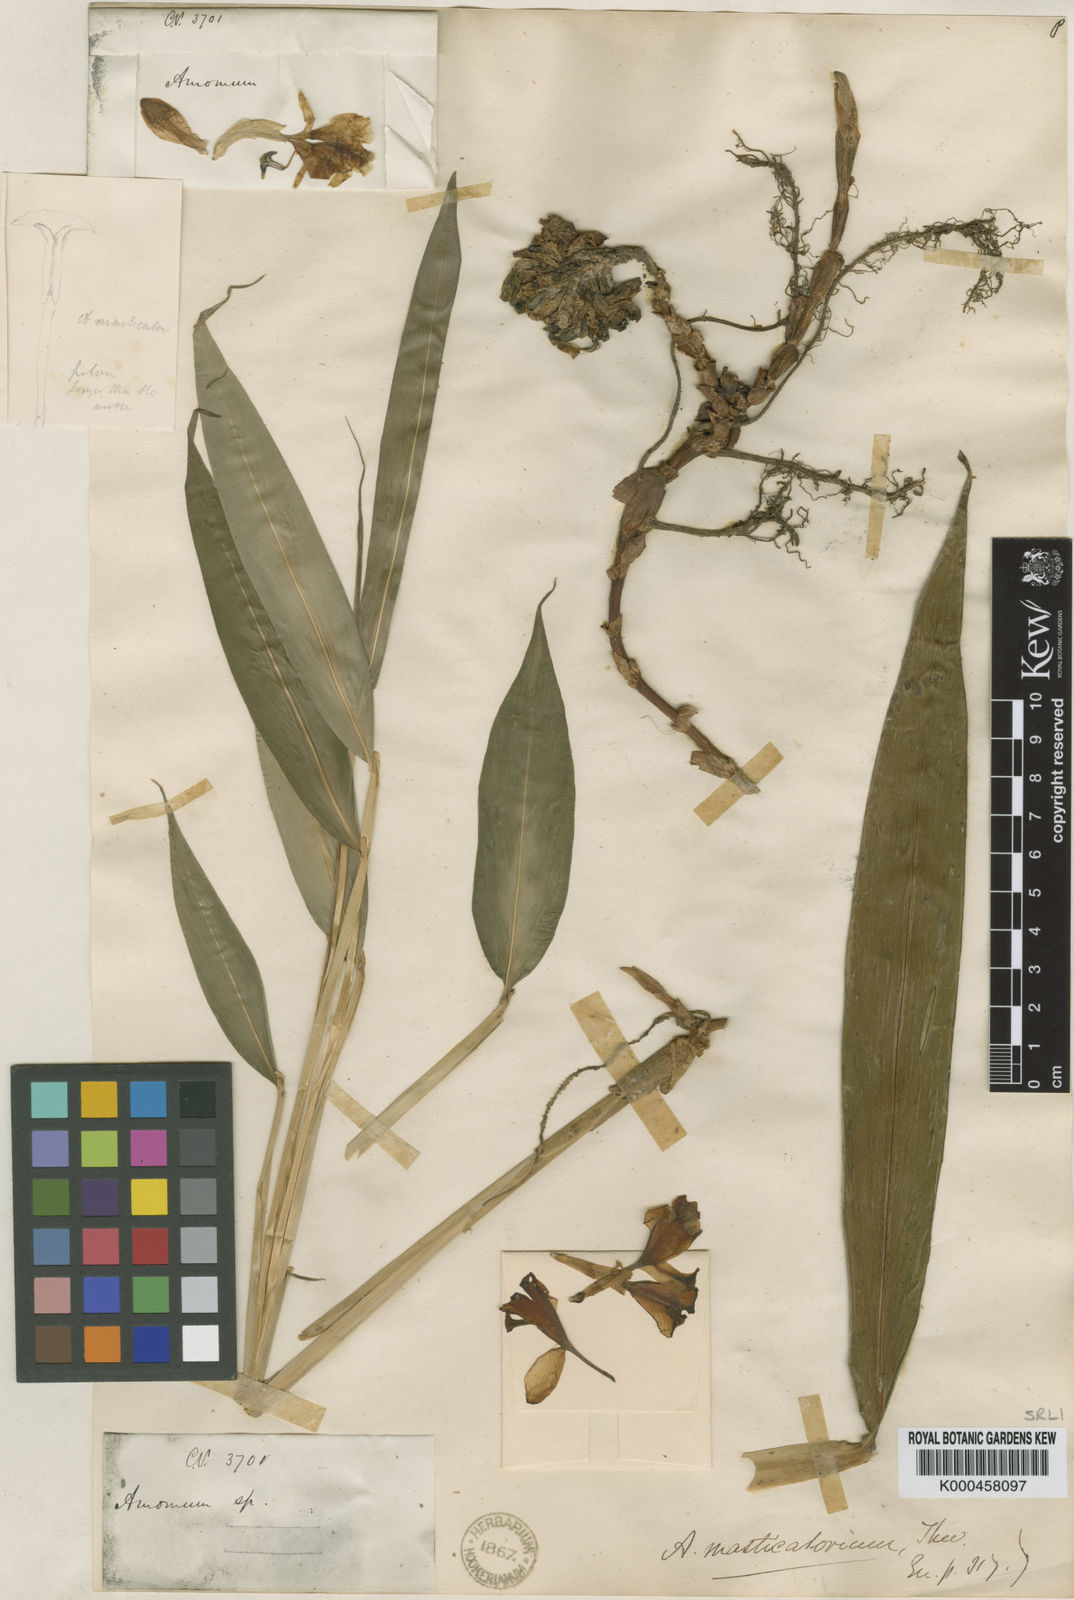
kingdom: Plantae
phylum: Tracheophyta
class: Liliopsida
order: Zingiberales
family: Zingiberaceae
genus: Meistera
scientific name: Meistera masticatorium
